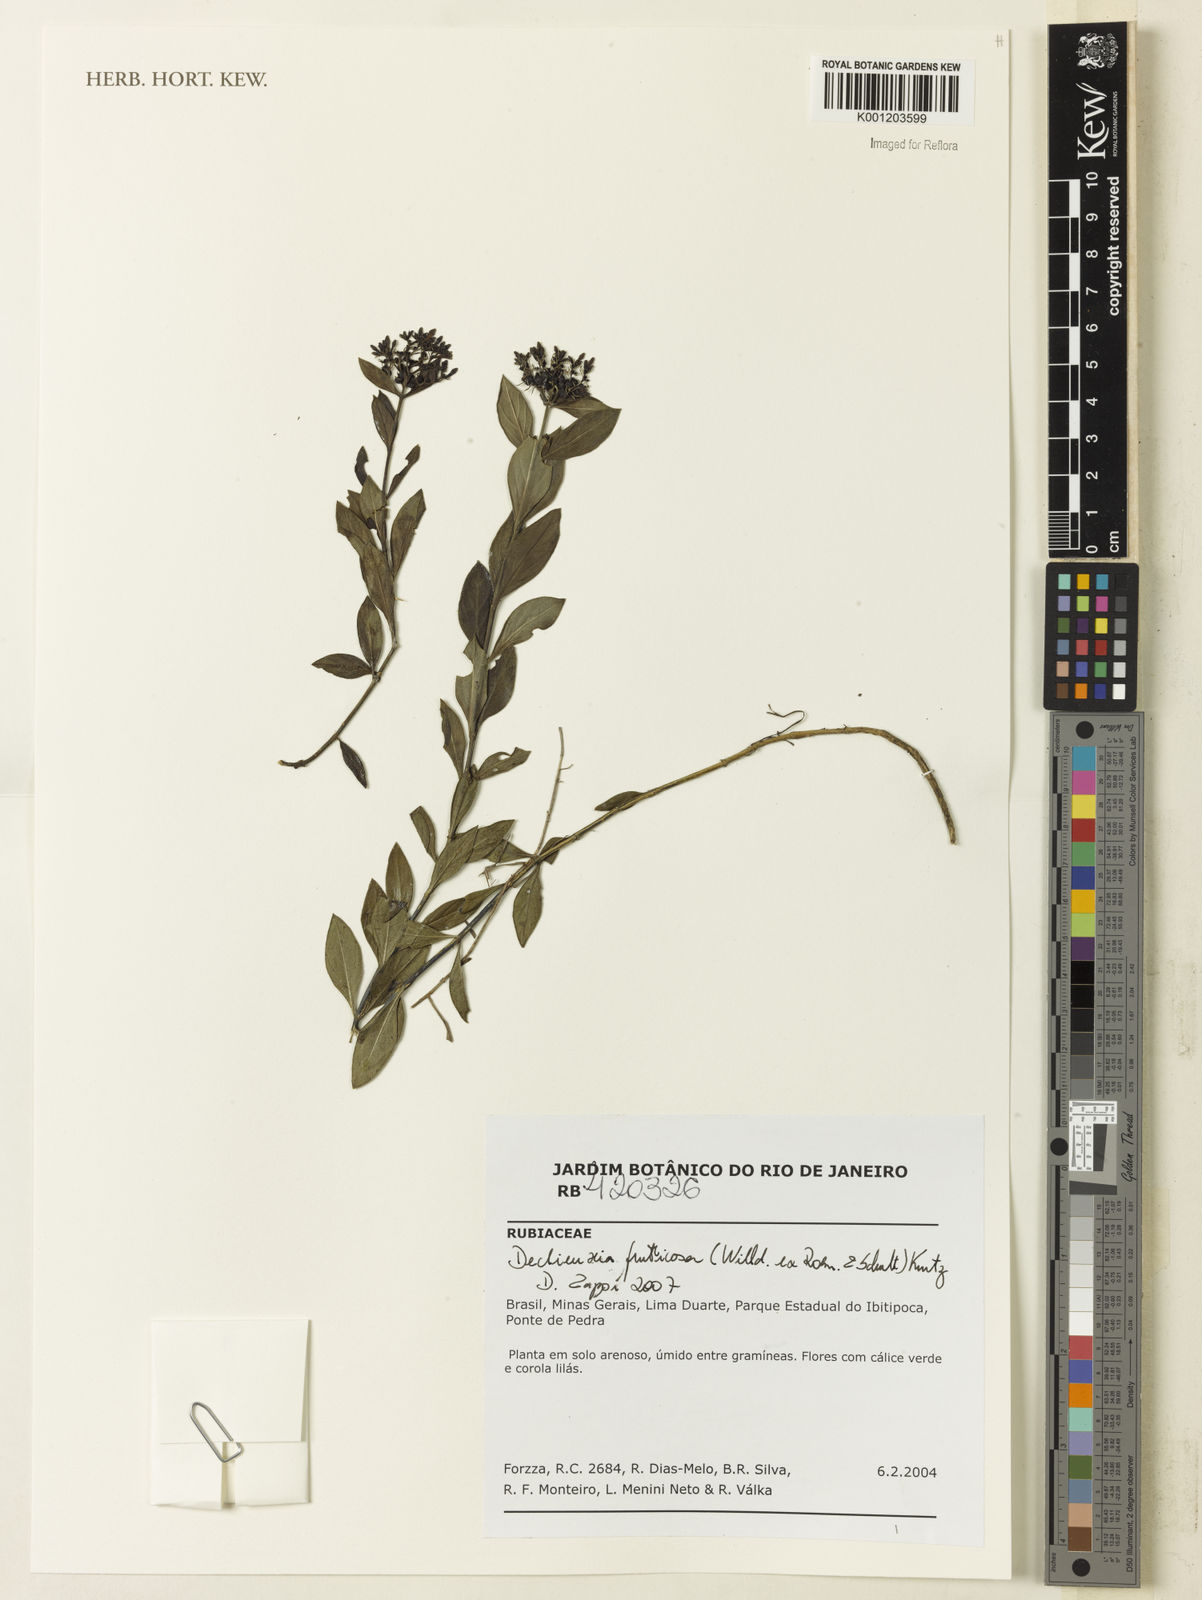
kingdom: Plantae
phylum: Tracheophyta
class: Magnoliopsida
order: Gentianales
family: Rubiaceae
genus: Declieuxia
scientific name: Declieuxia fruticosa
